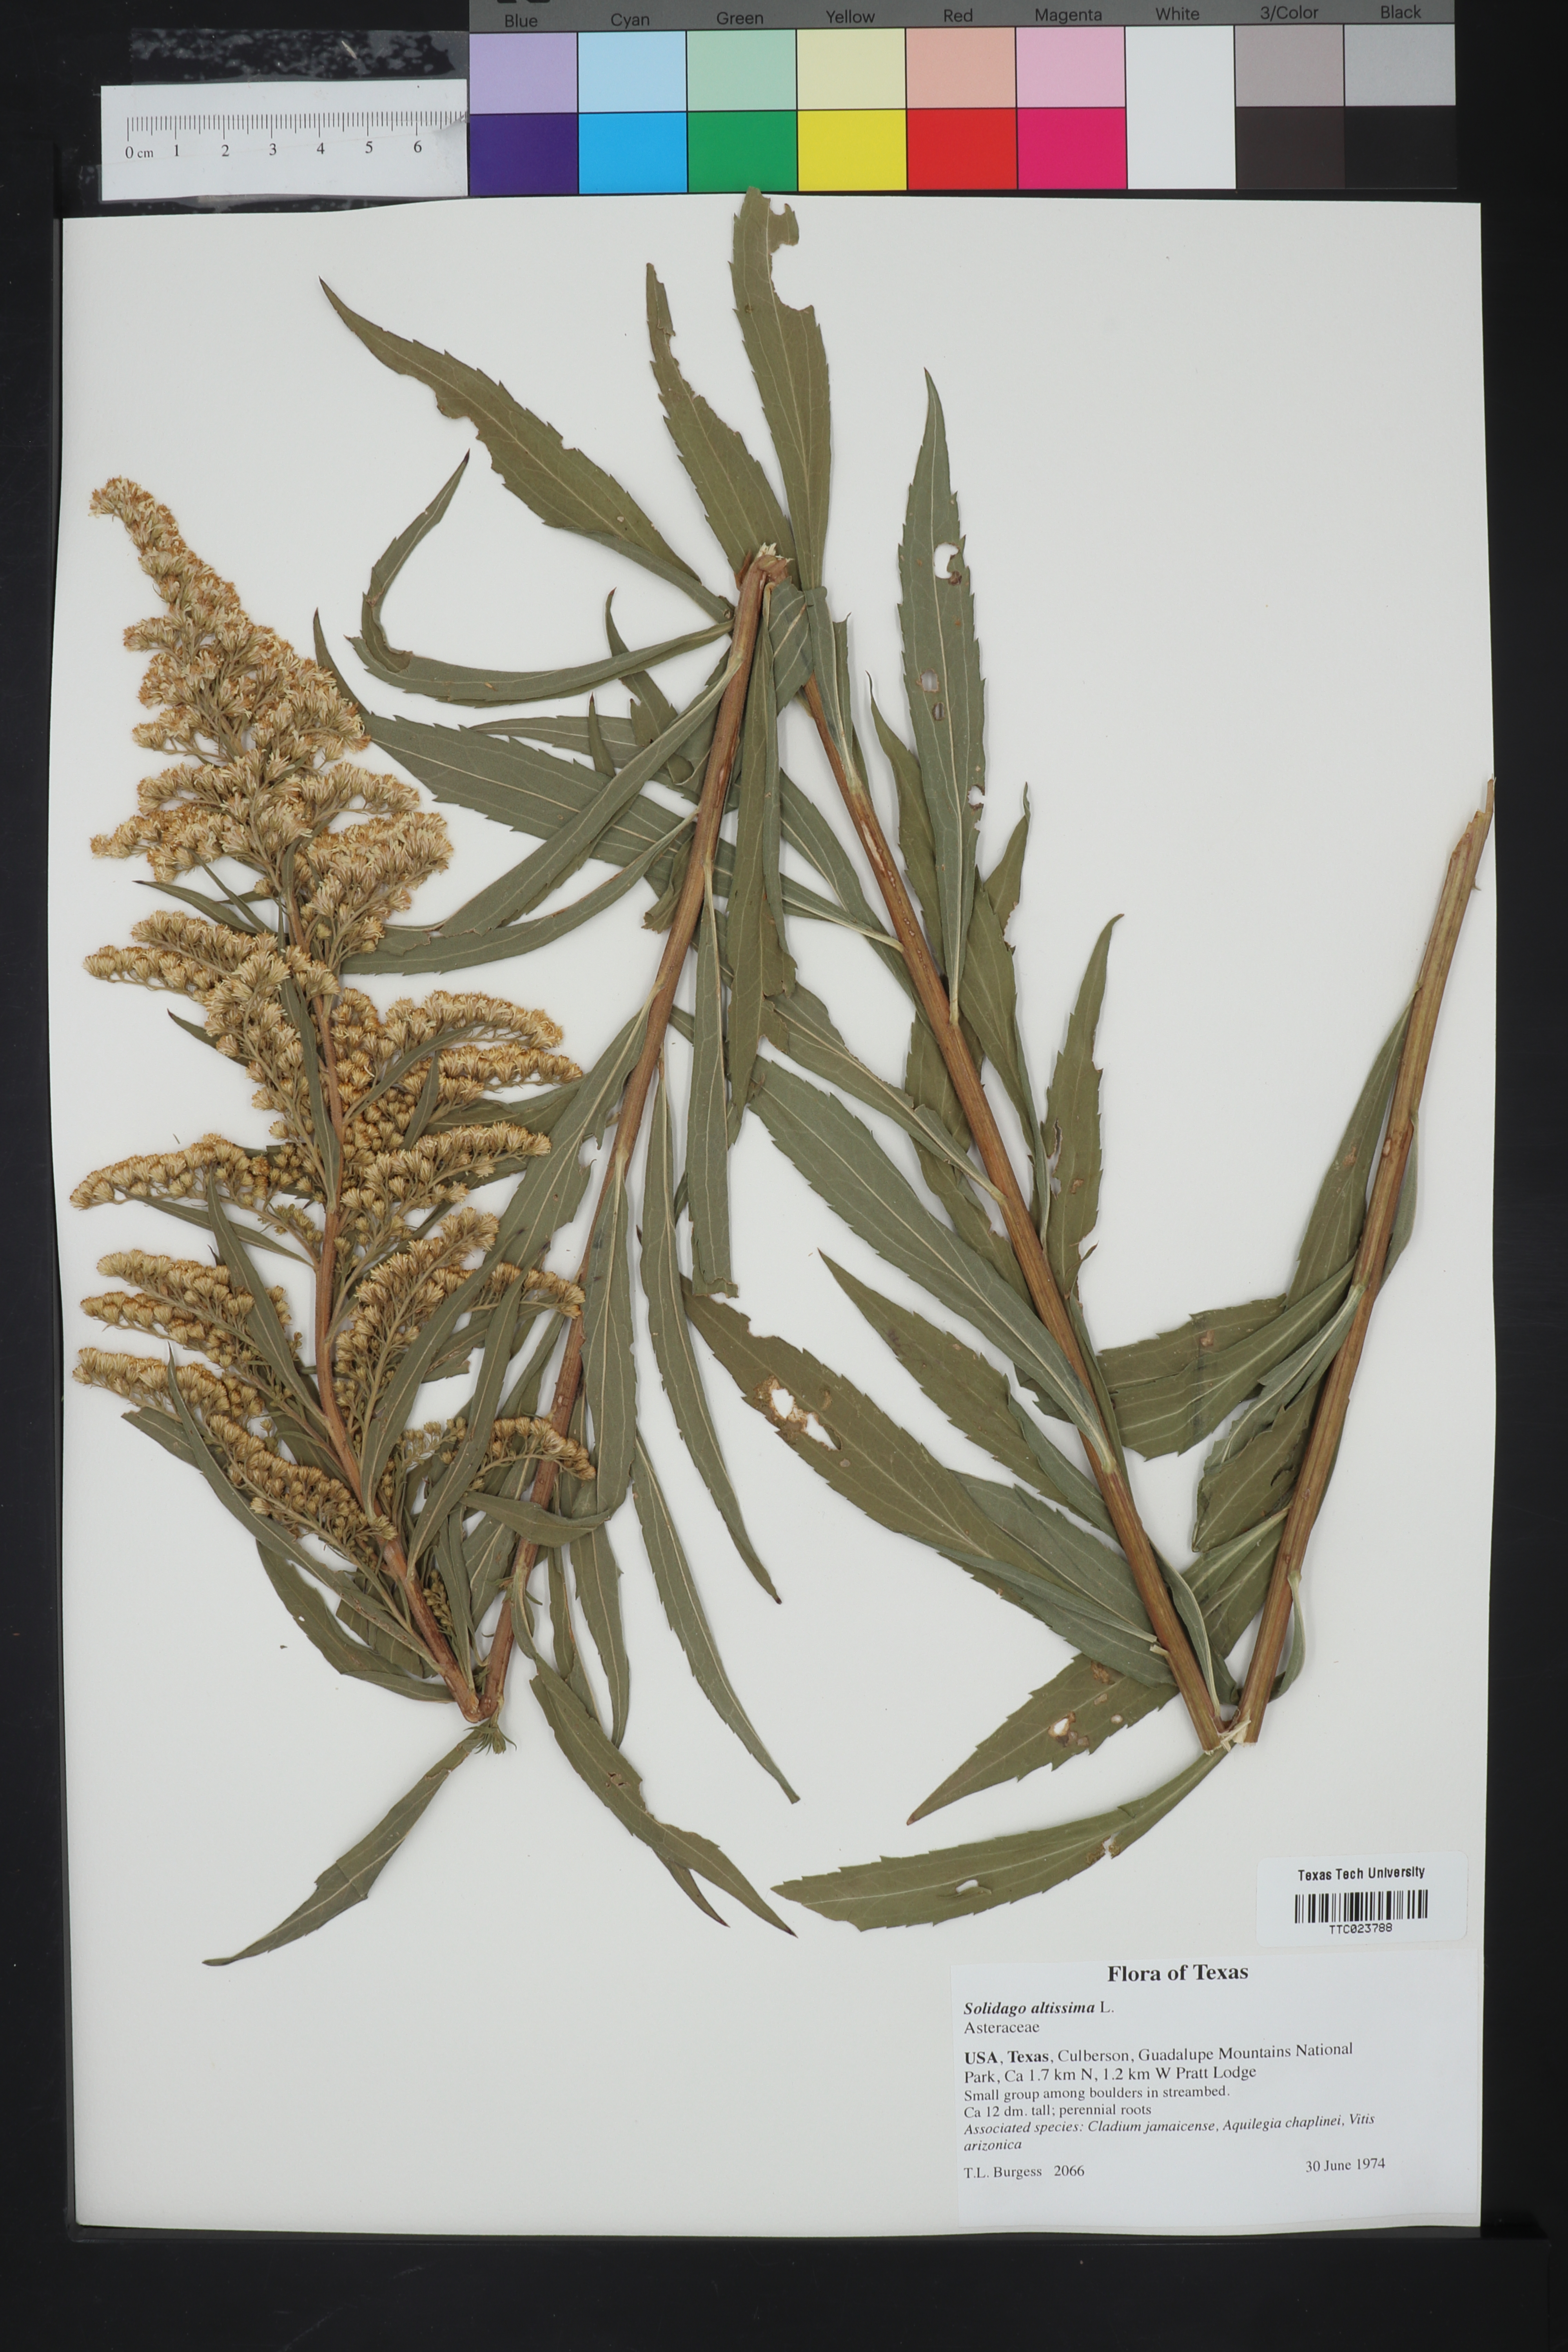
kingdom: Plantae
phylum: Tracheophyta
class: Magnoliopsida
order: Asterales
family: Asteraceae
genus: Solidago
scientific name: Solidago altissima
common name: Late goldenrod
